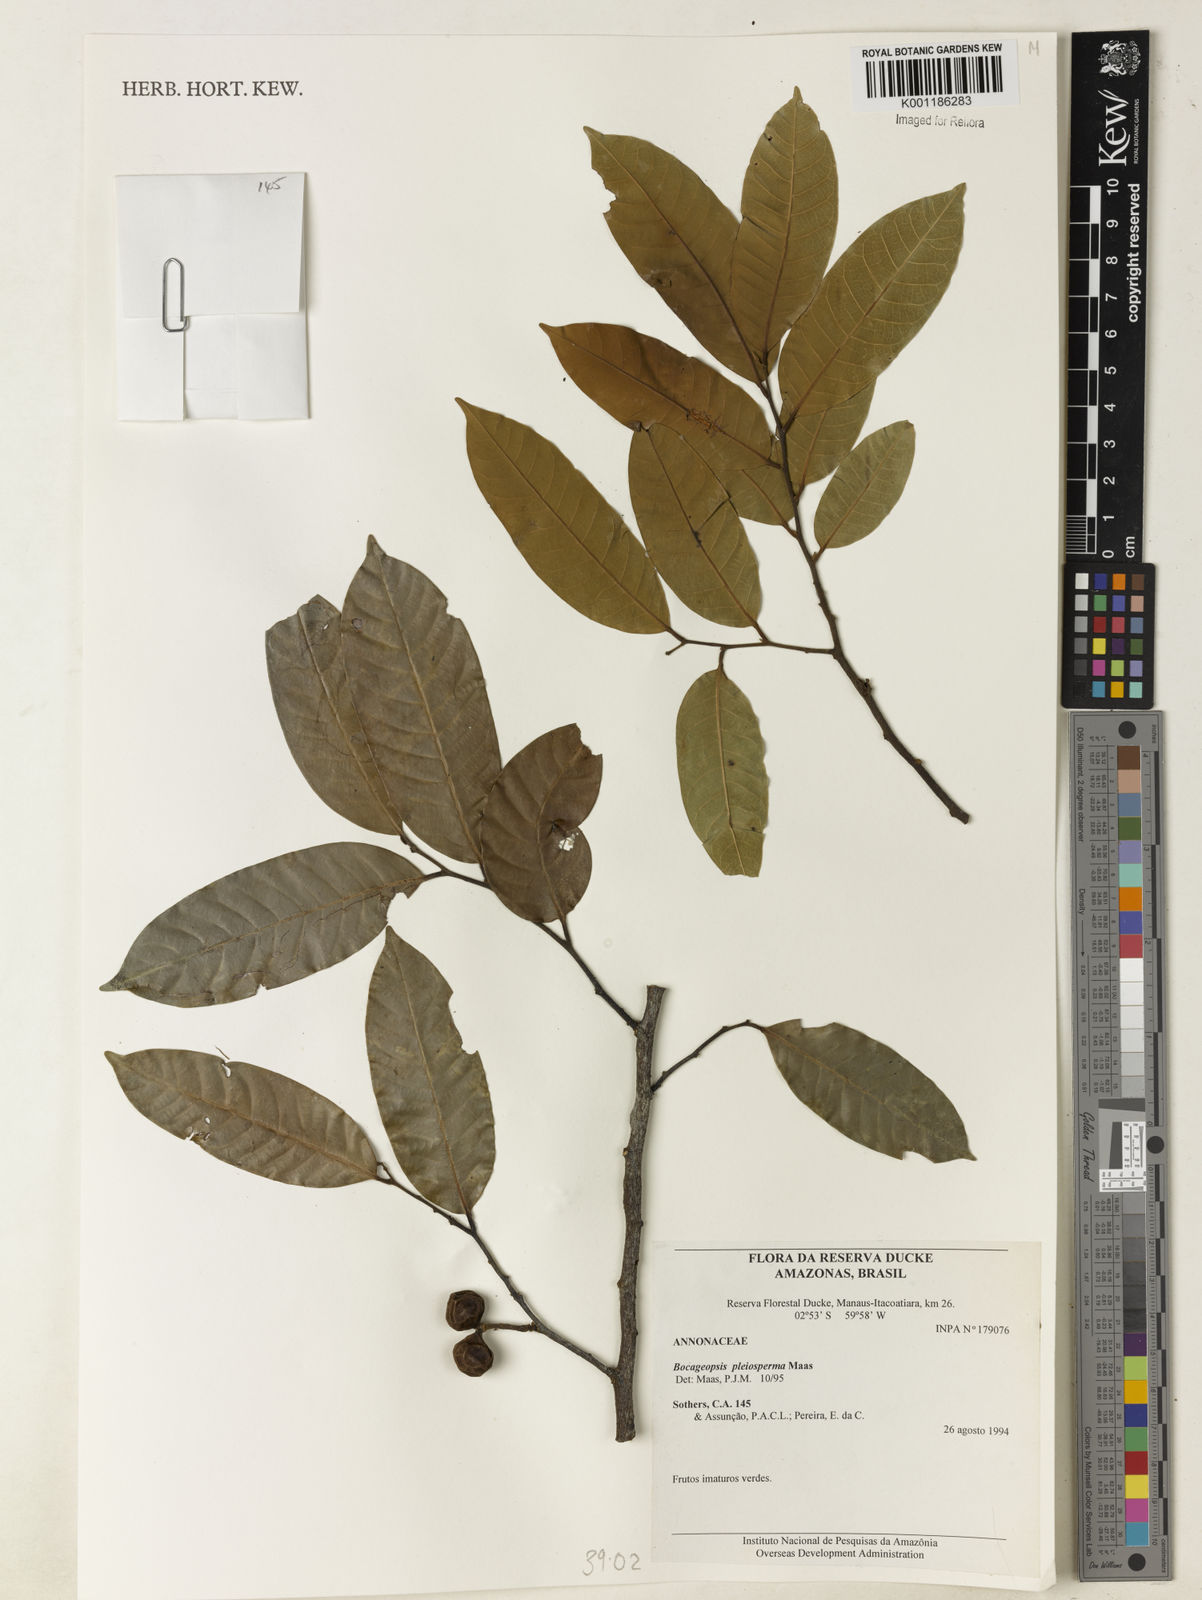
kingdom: Plantae
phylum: Tracheophyta
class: Magnoliopsida
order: Magnoliales
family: Annonaceae
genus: Bocageopsis
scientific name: Bocageopsis pleiosperma
